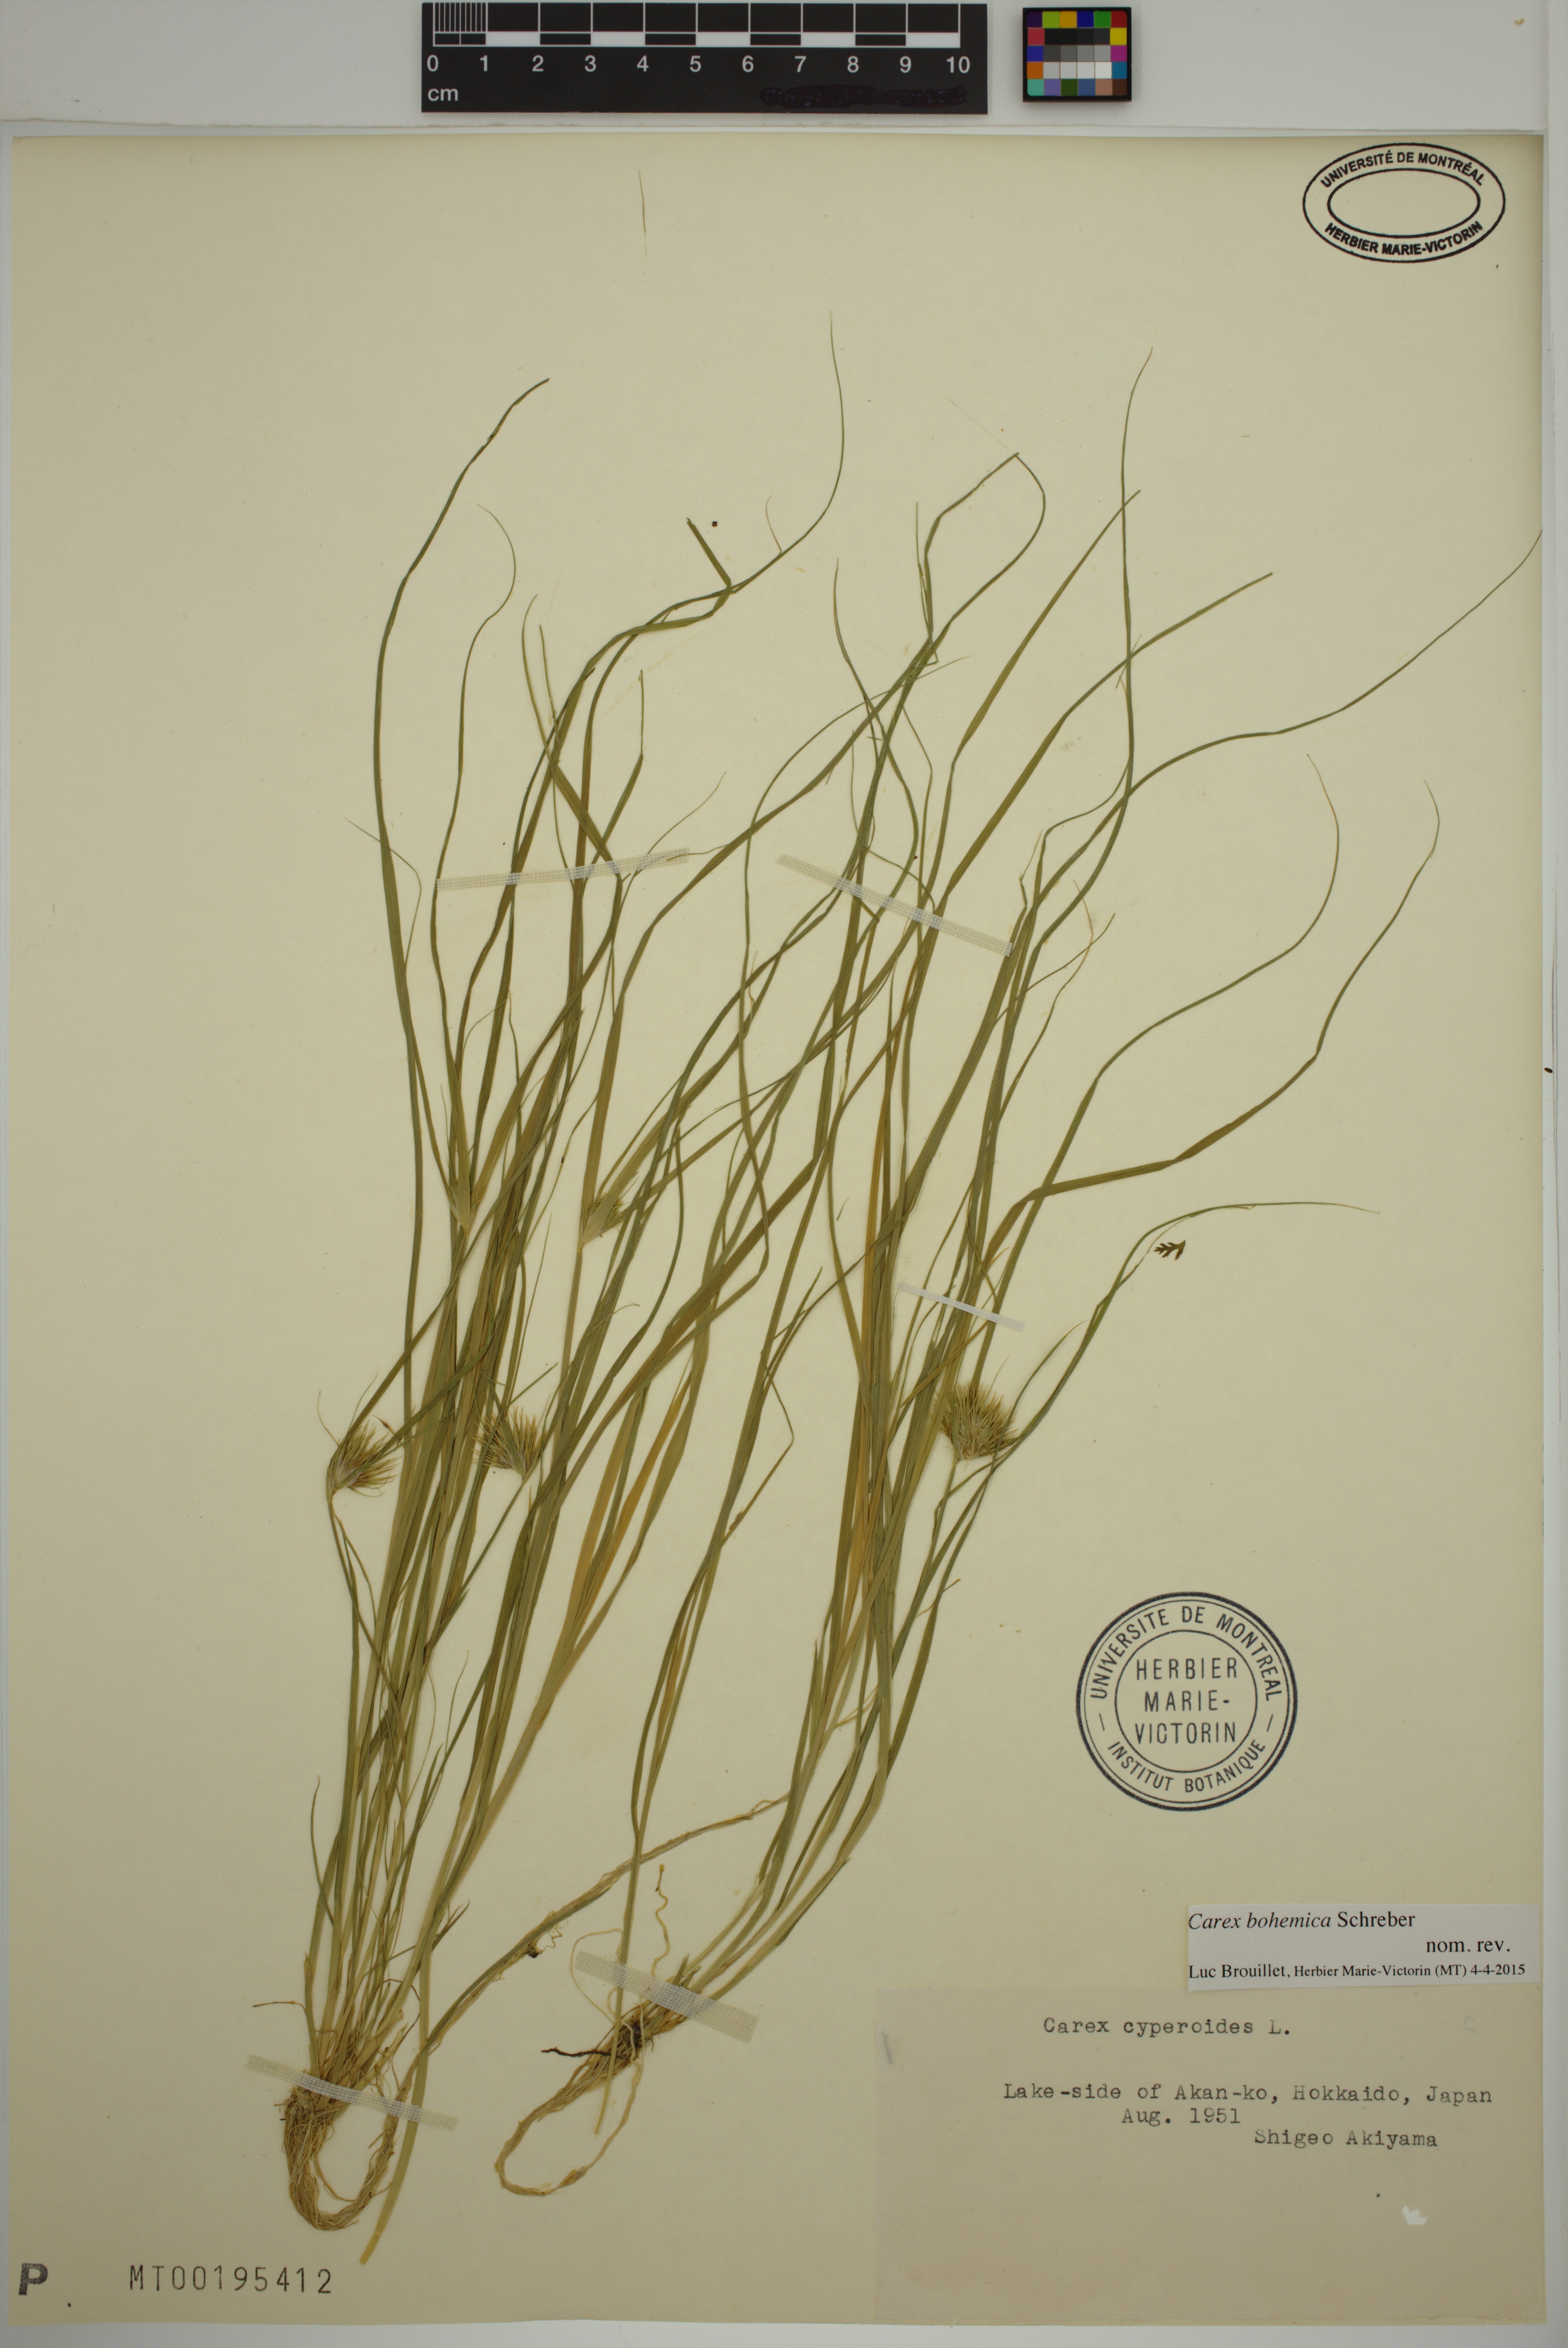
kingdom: Plantae
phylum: Tracheophyta
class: Liliopsida
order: Poales
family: Cyperaceae
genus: Carex
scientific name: Carex bohemica
